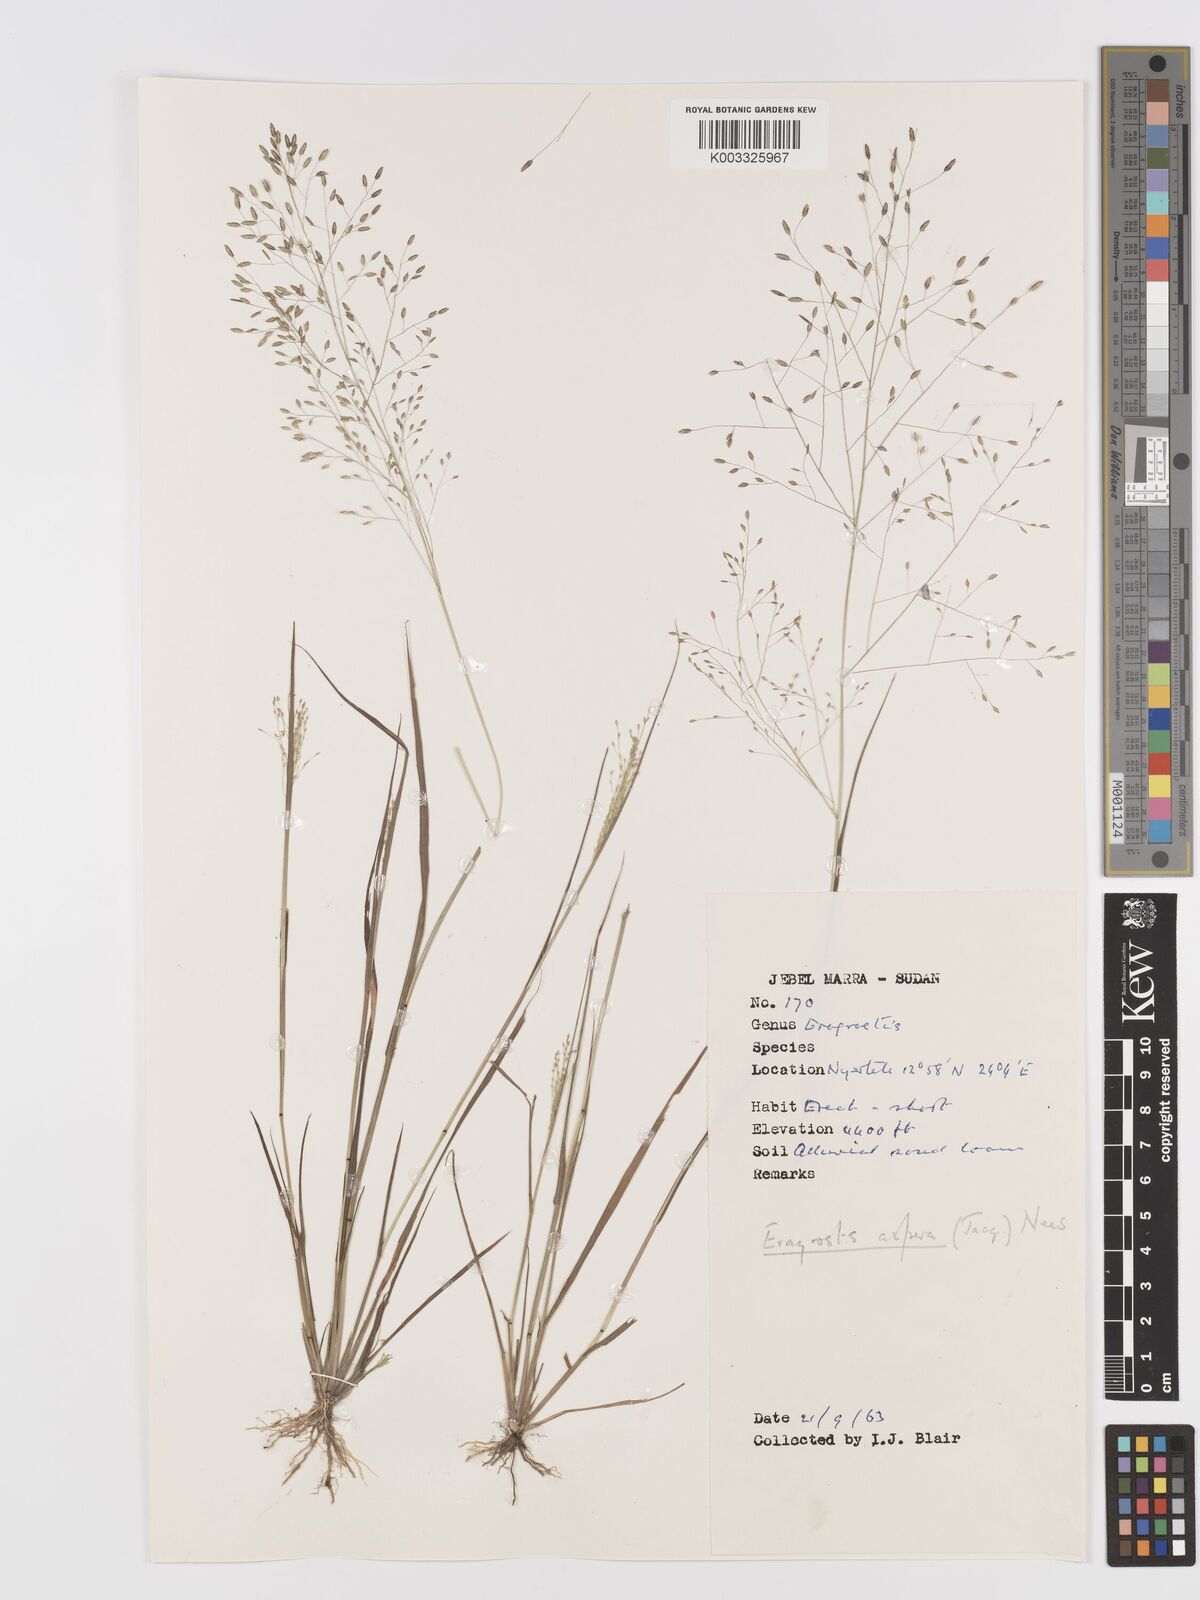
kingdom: Plantae
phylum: Tracheophyta
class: Liliopsida
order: Poales
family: Poaceae
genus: Eragrostis
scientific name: Eragrostis aspera
